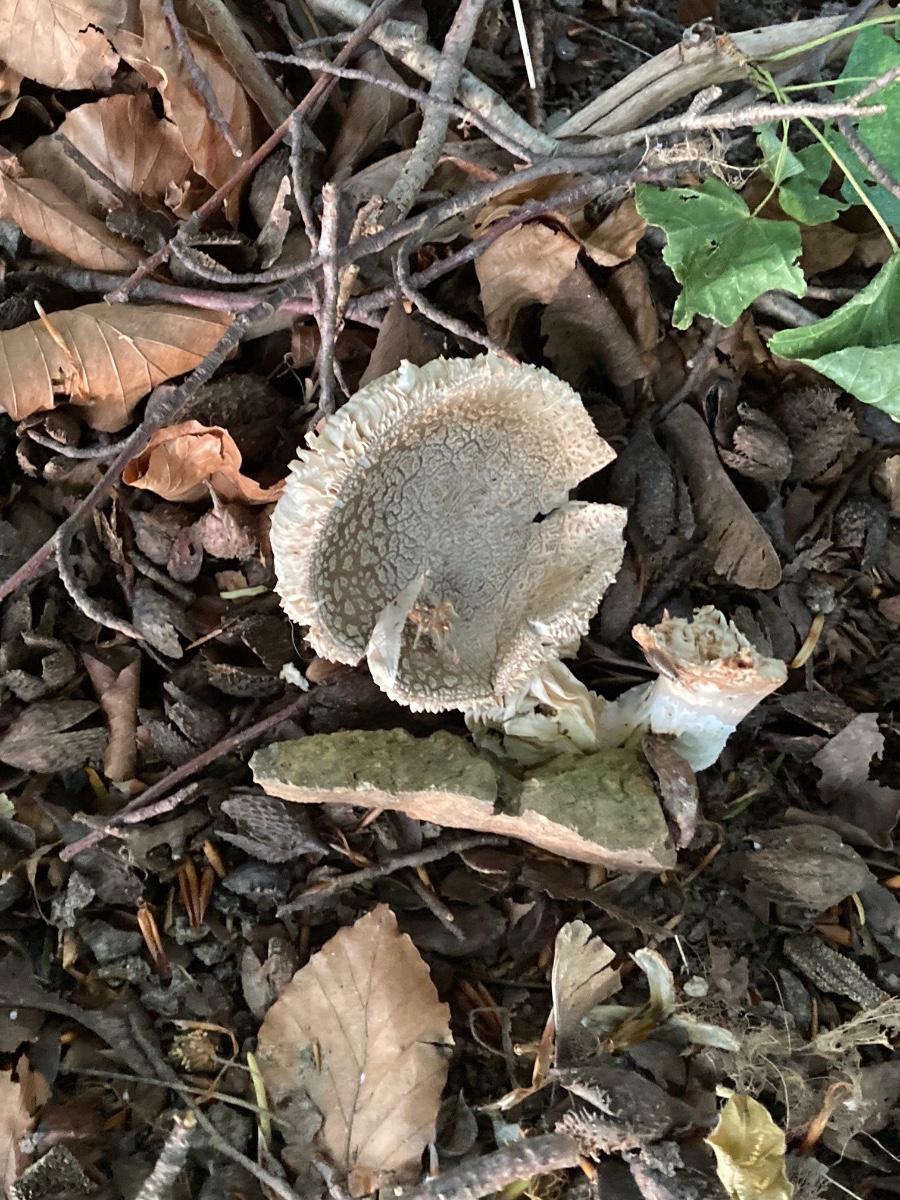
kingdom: Fungi
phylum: Basidiomycota
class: Agaricomycetes
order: Agaricales
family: Amanitaceae
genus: Amanita
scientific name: Amanita rubescens
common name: rødmende fluesvamp
